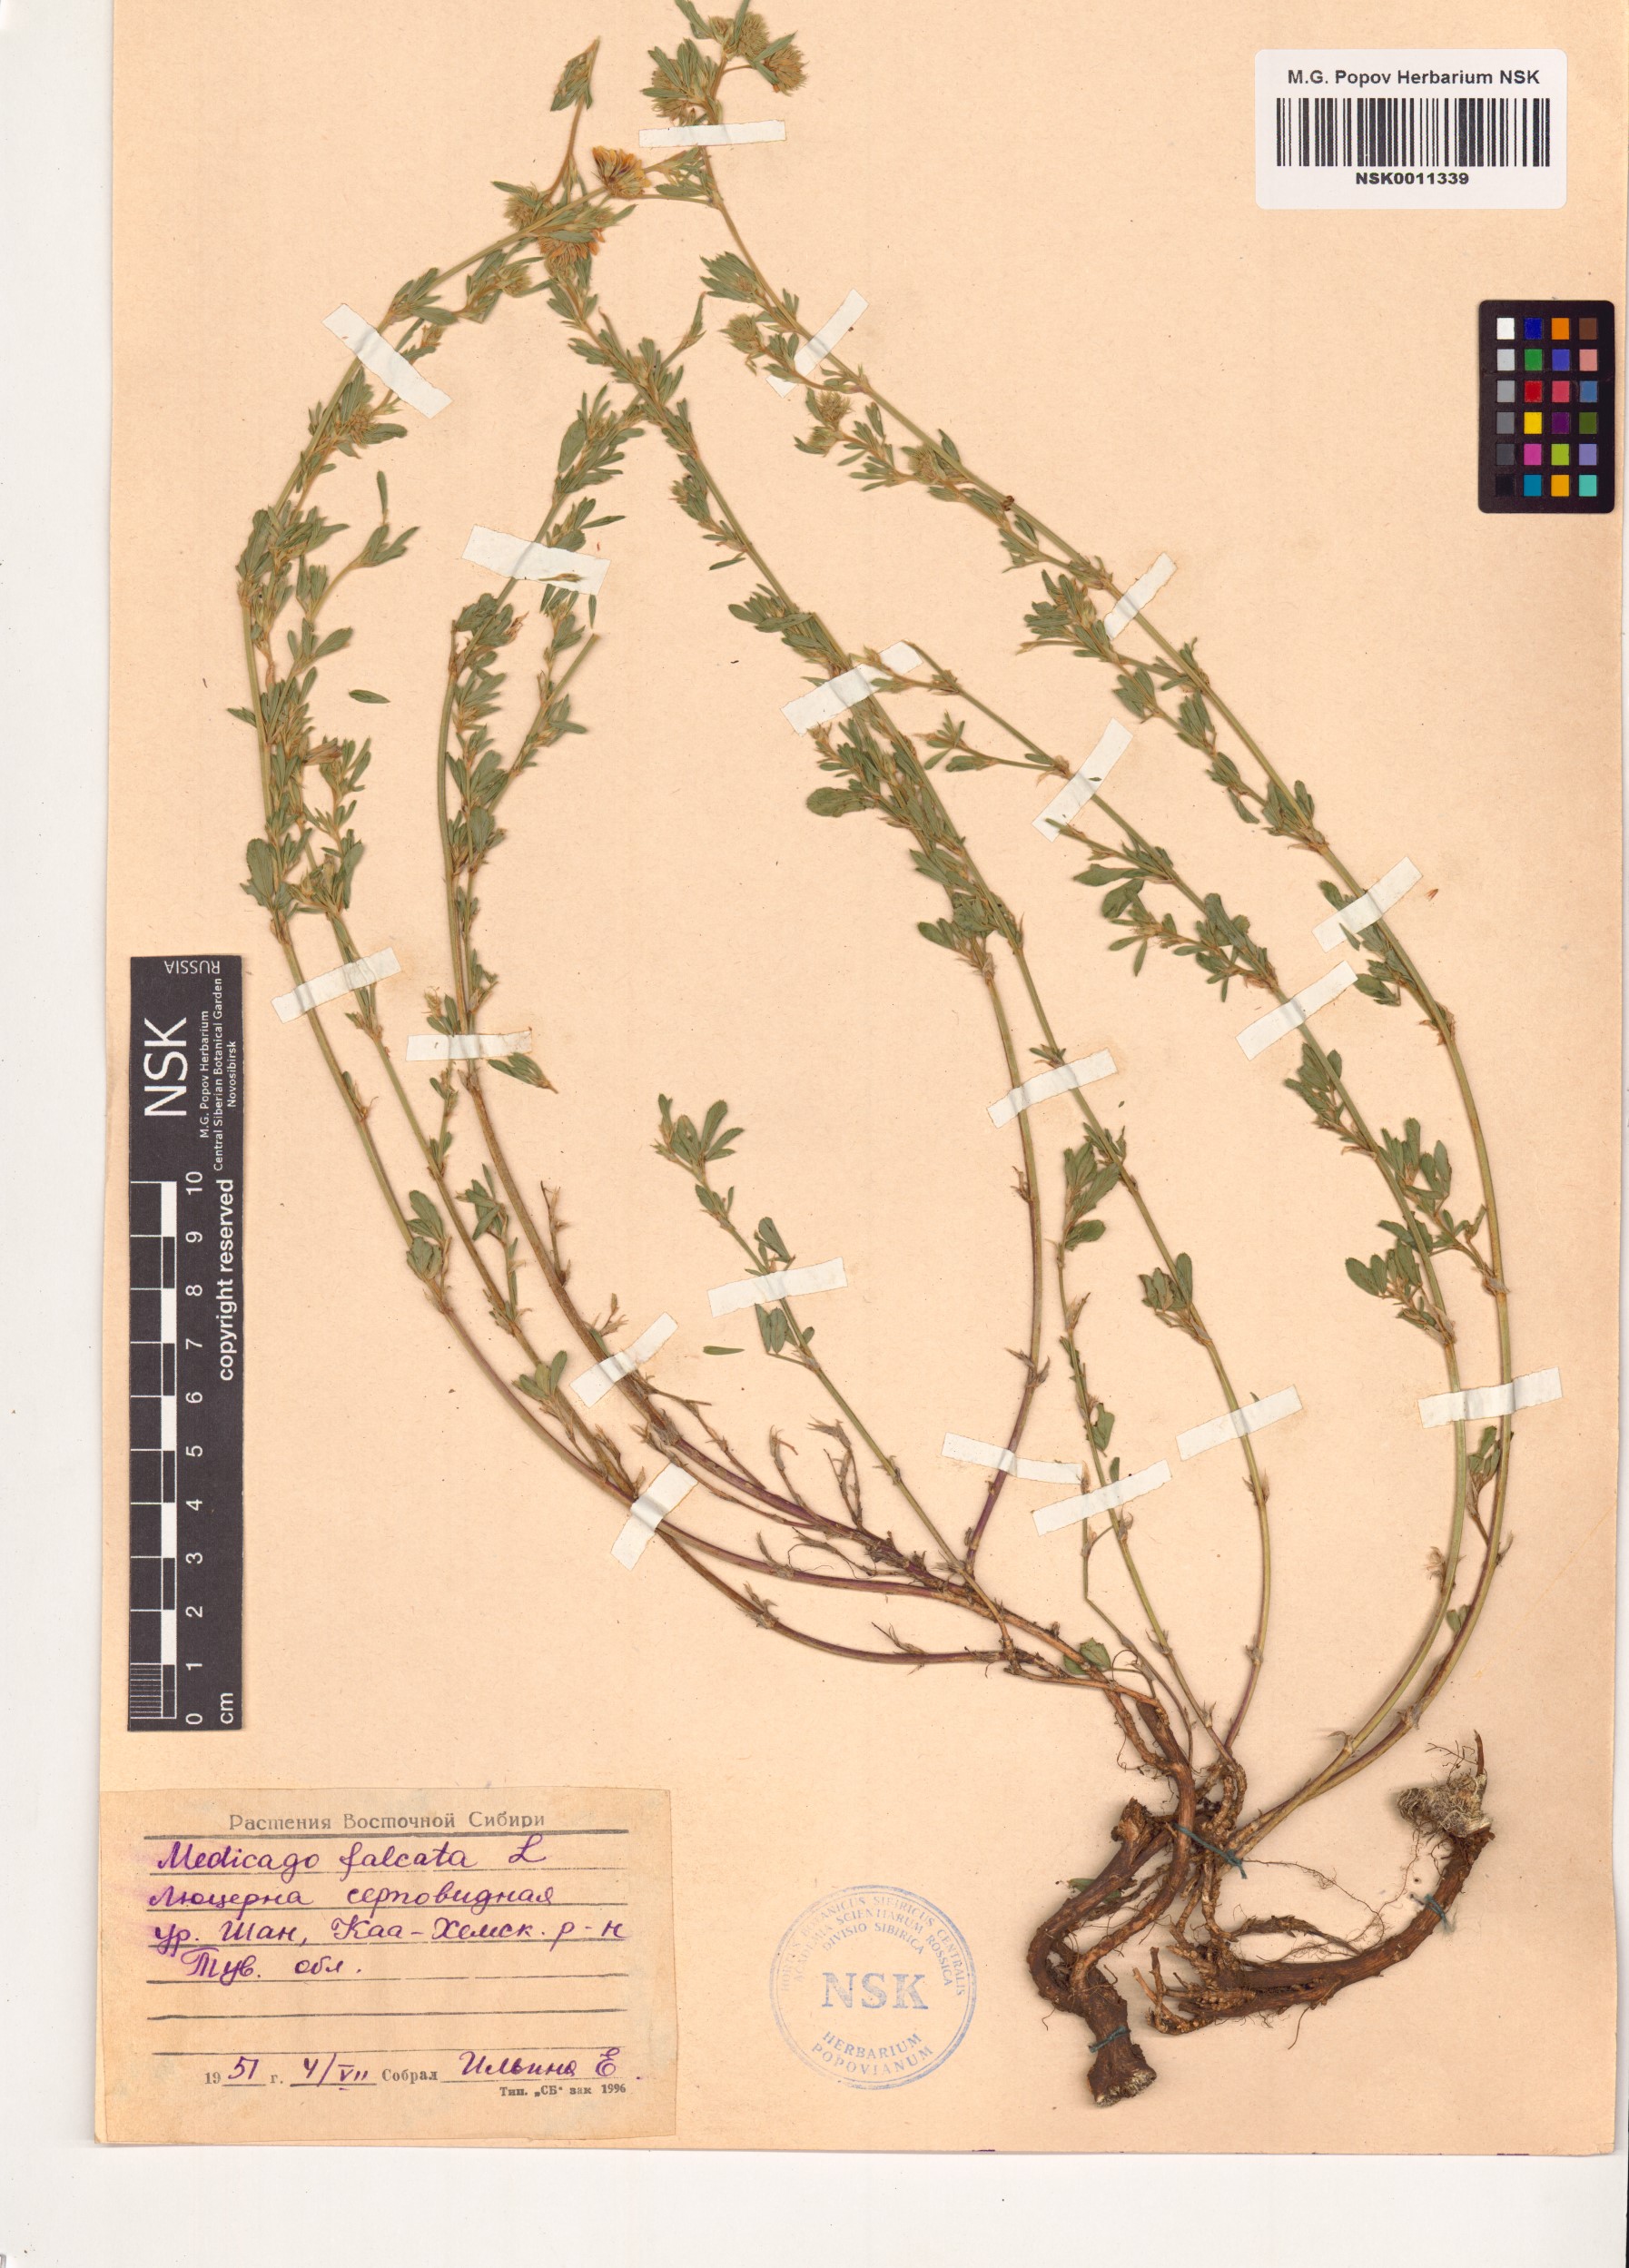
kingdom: Plantae
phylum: Tracheophyta
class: Magnoliopsida
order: Fabales
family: Fabaceae
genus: Medicago
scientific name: Medicago falcata
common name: Sickle medick
